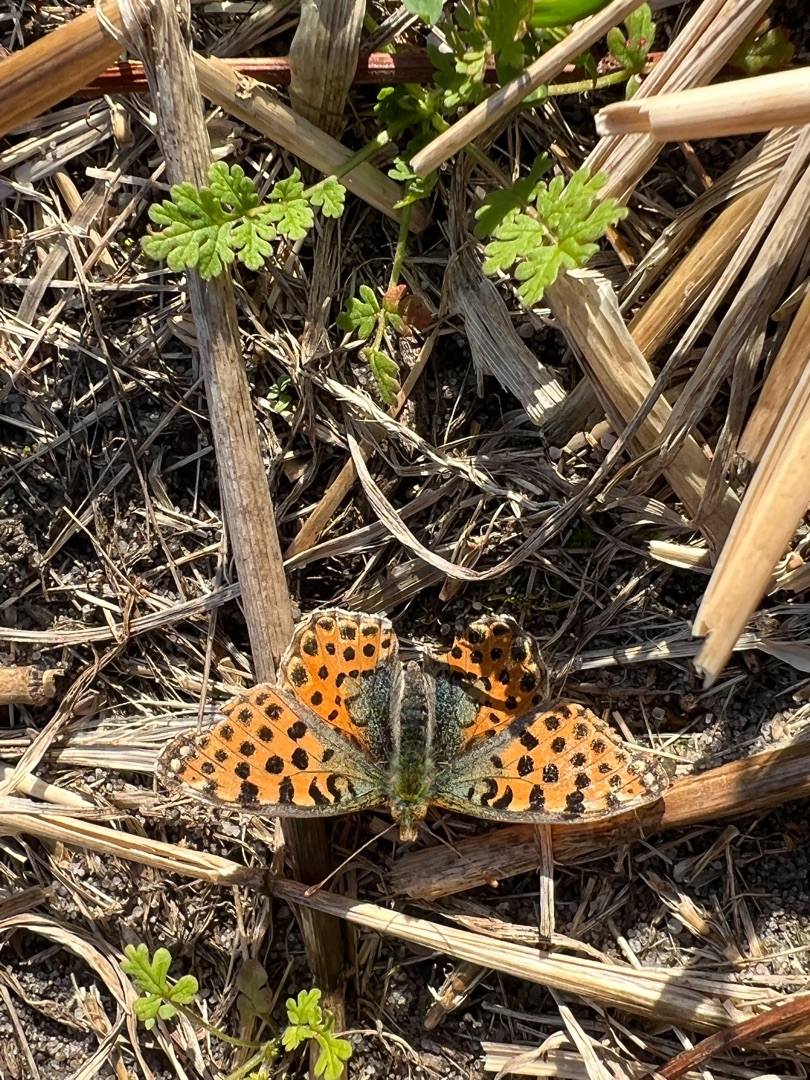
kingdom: Animalia
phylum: Arthropoda
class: Insecta
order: Lepidoptera
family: Nymphalidae
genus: Issoria
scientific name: Issoria lathonia
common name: Storplettet perlemorsommerfugl
